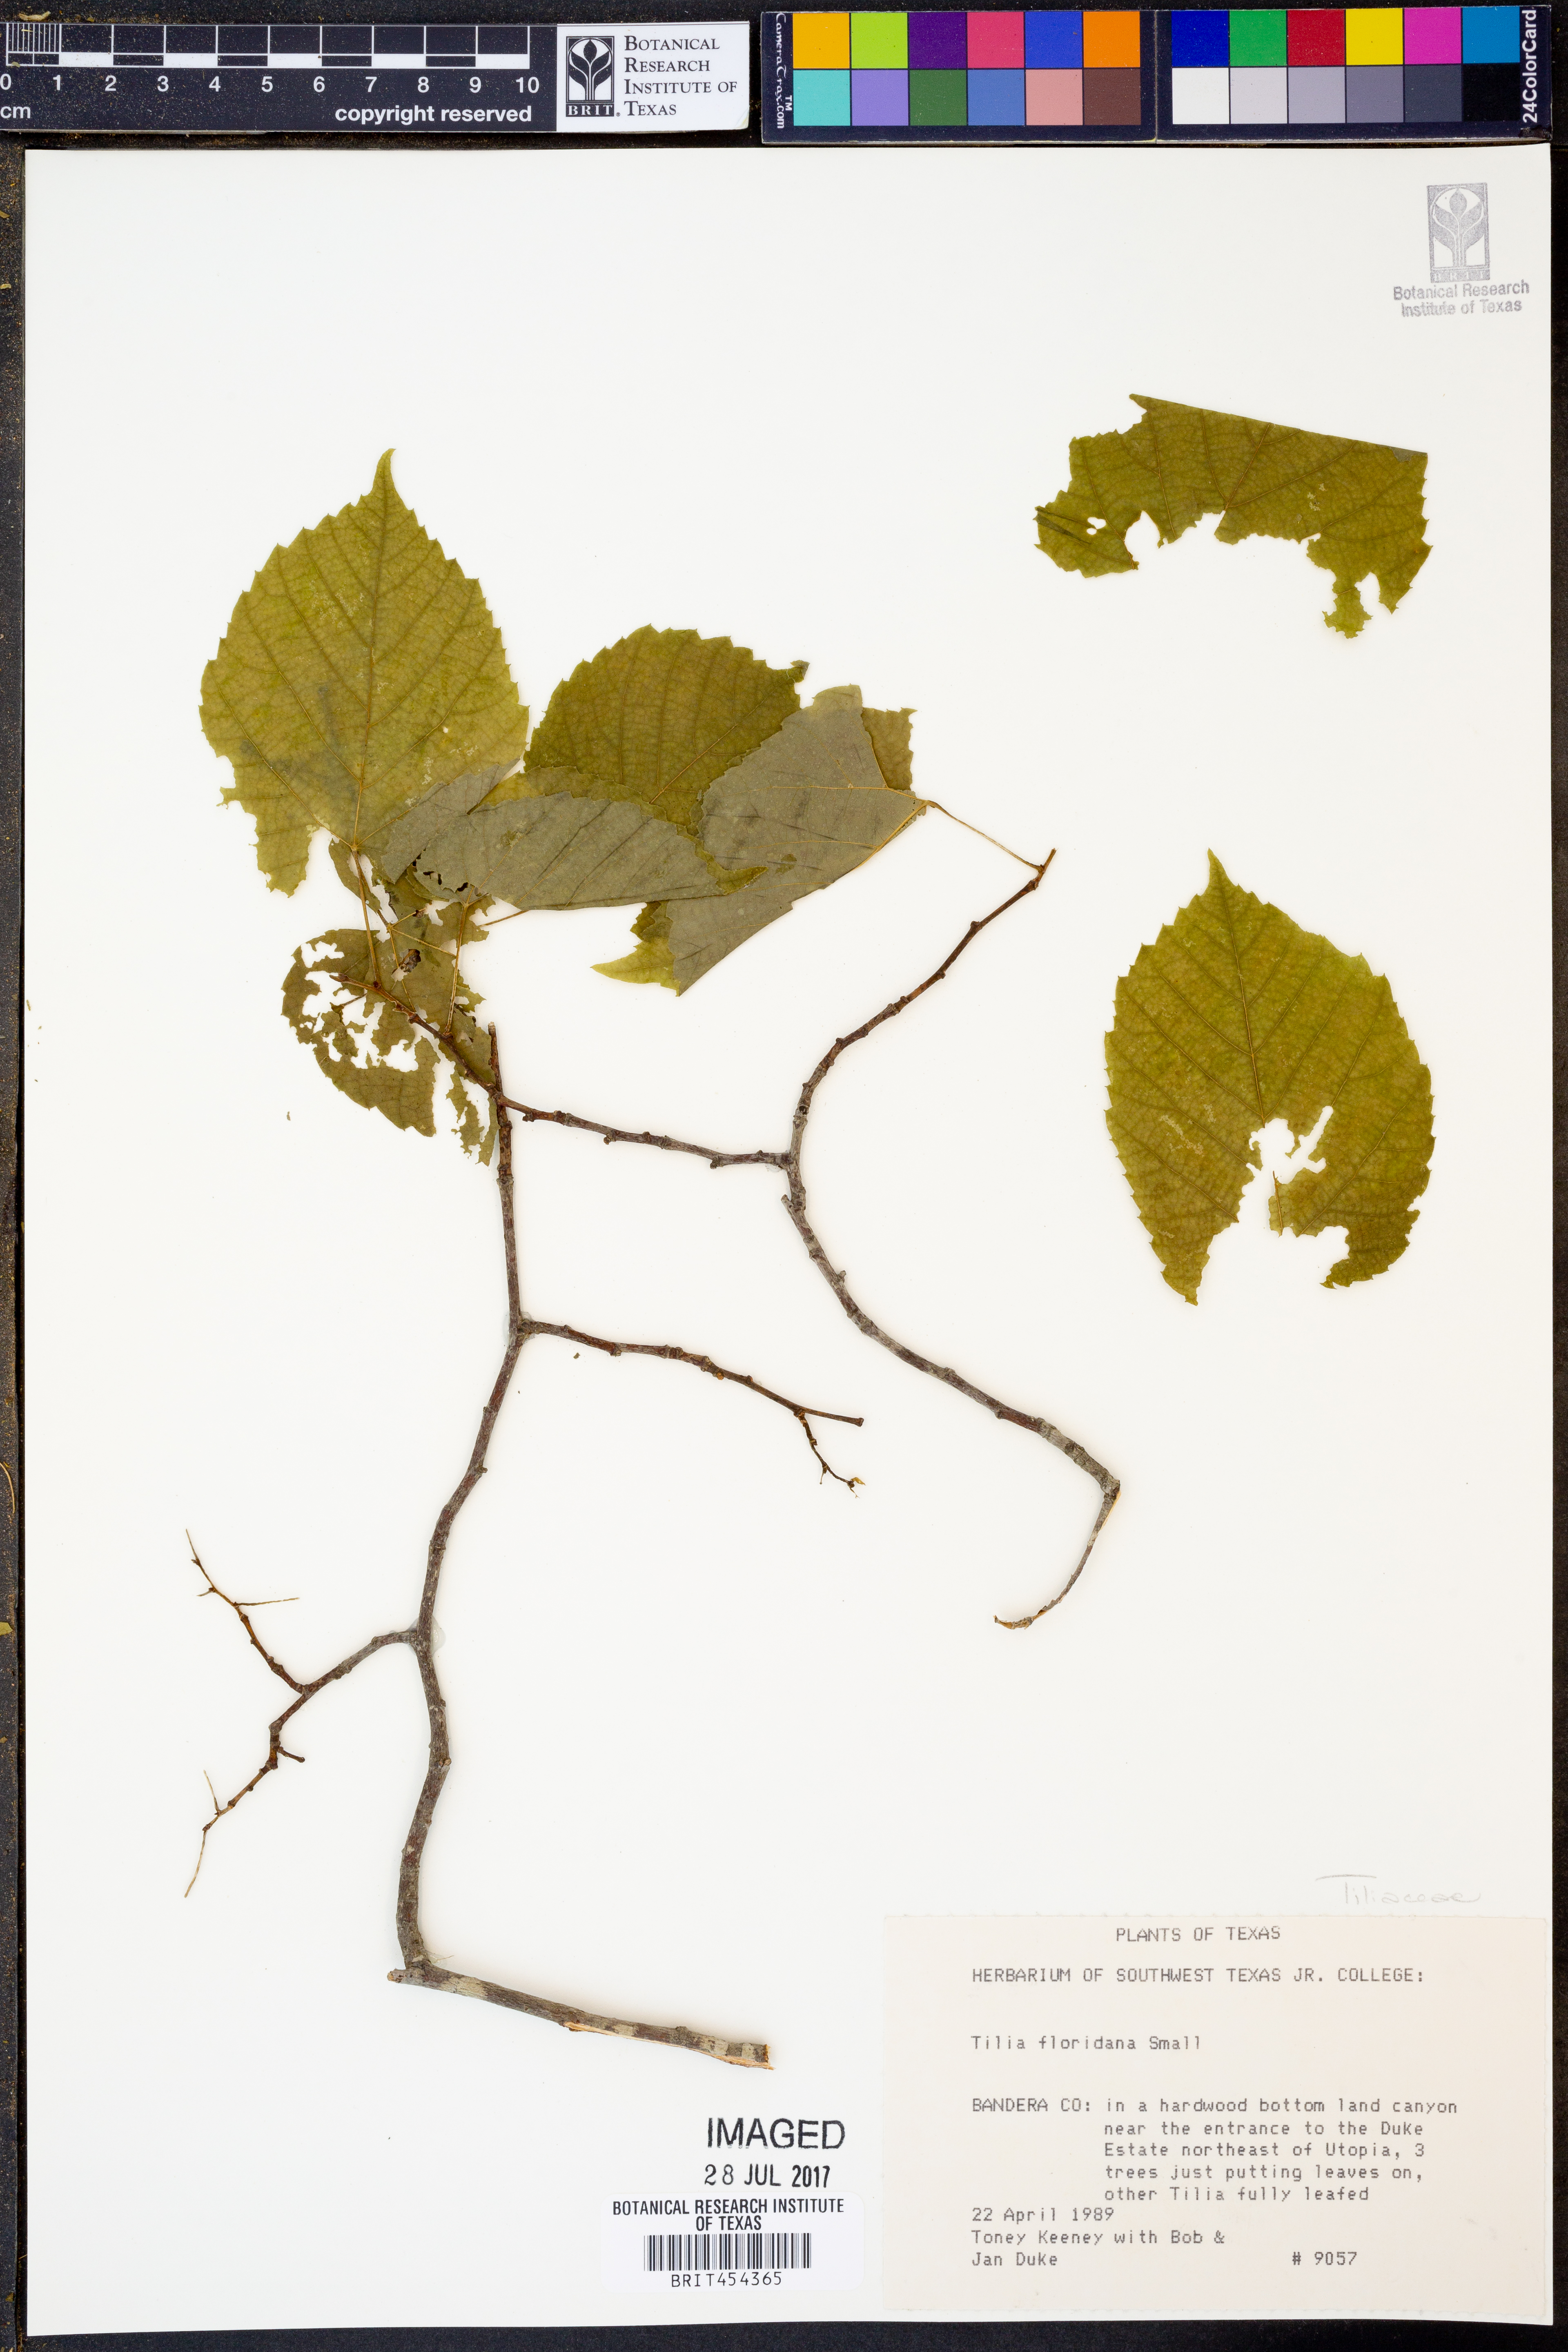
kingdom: Plantae
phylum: Tracheophyta
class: Magnoliopsida
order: Malvales
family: Malvaceae
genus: Tilia
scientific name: Tilia americana
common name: Basswood
